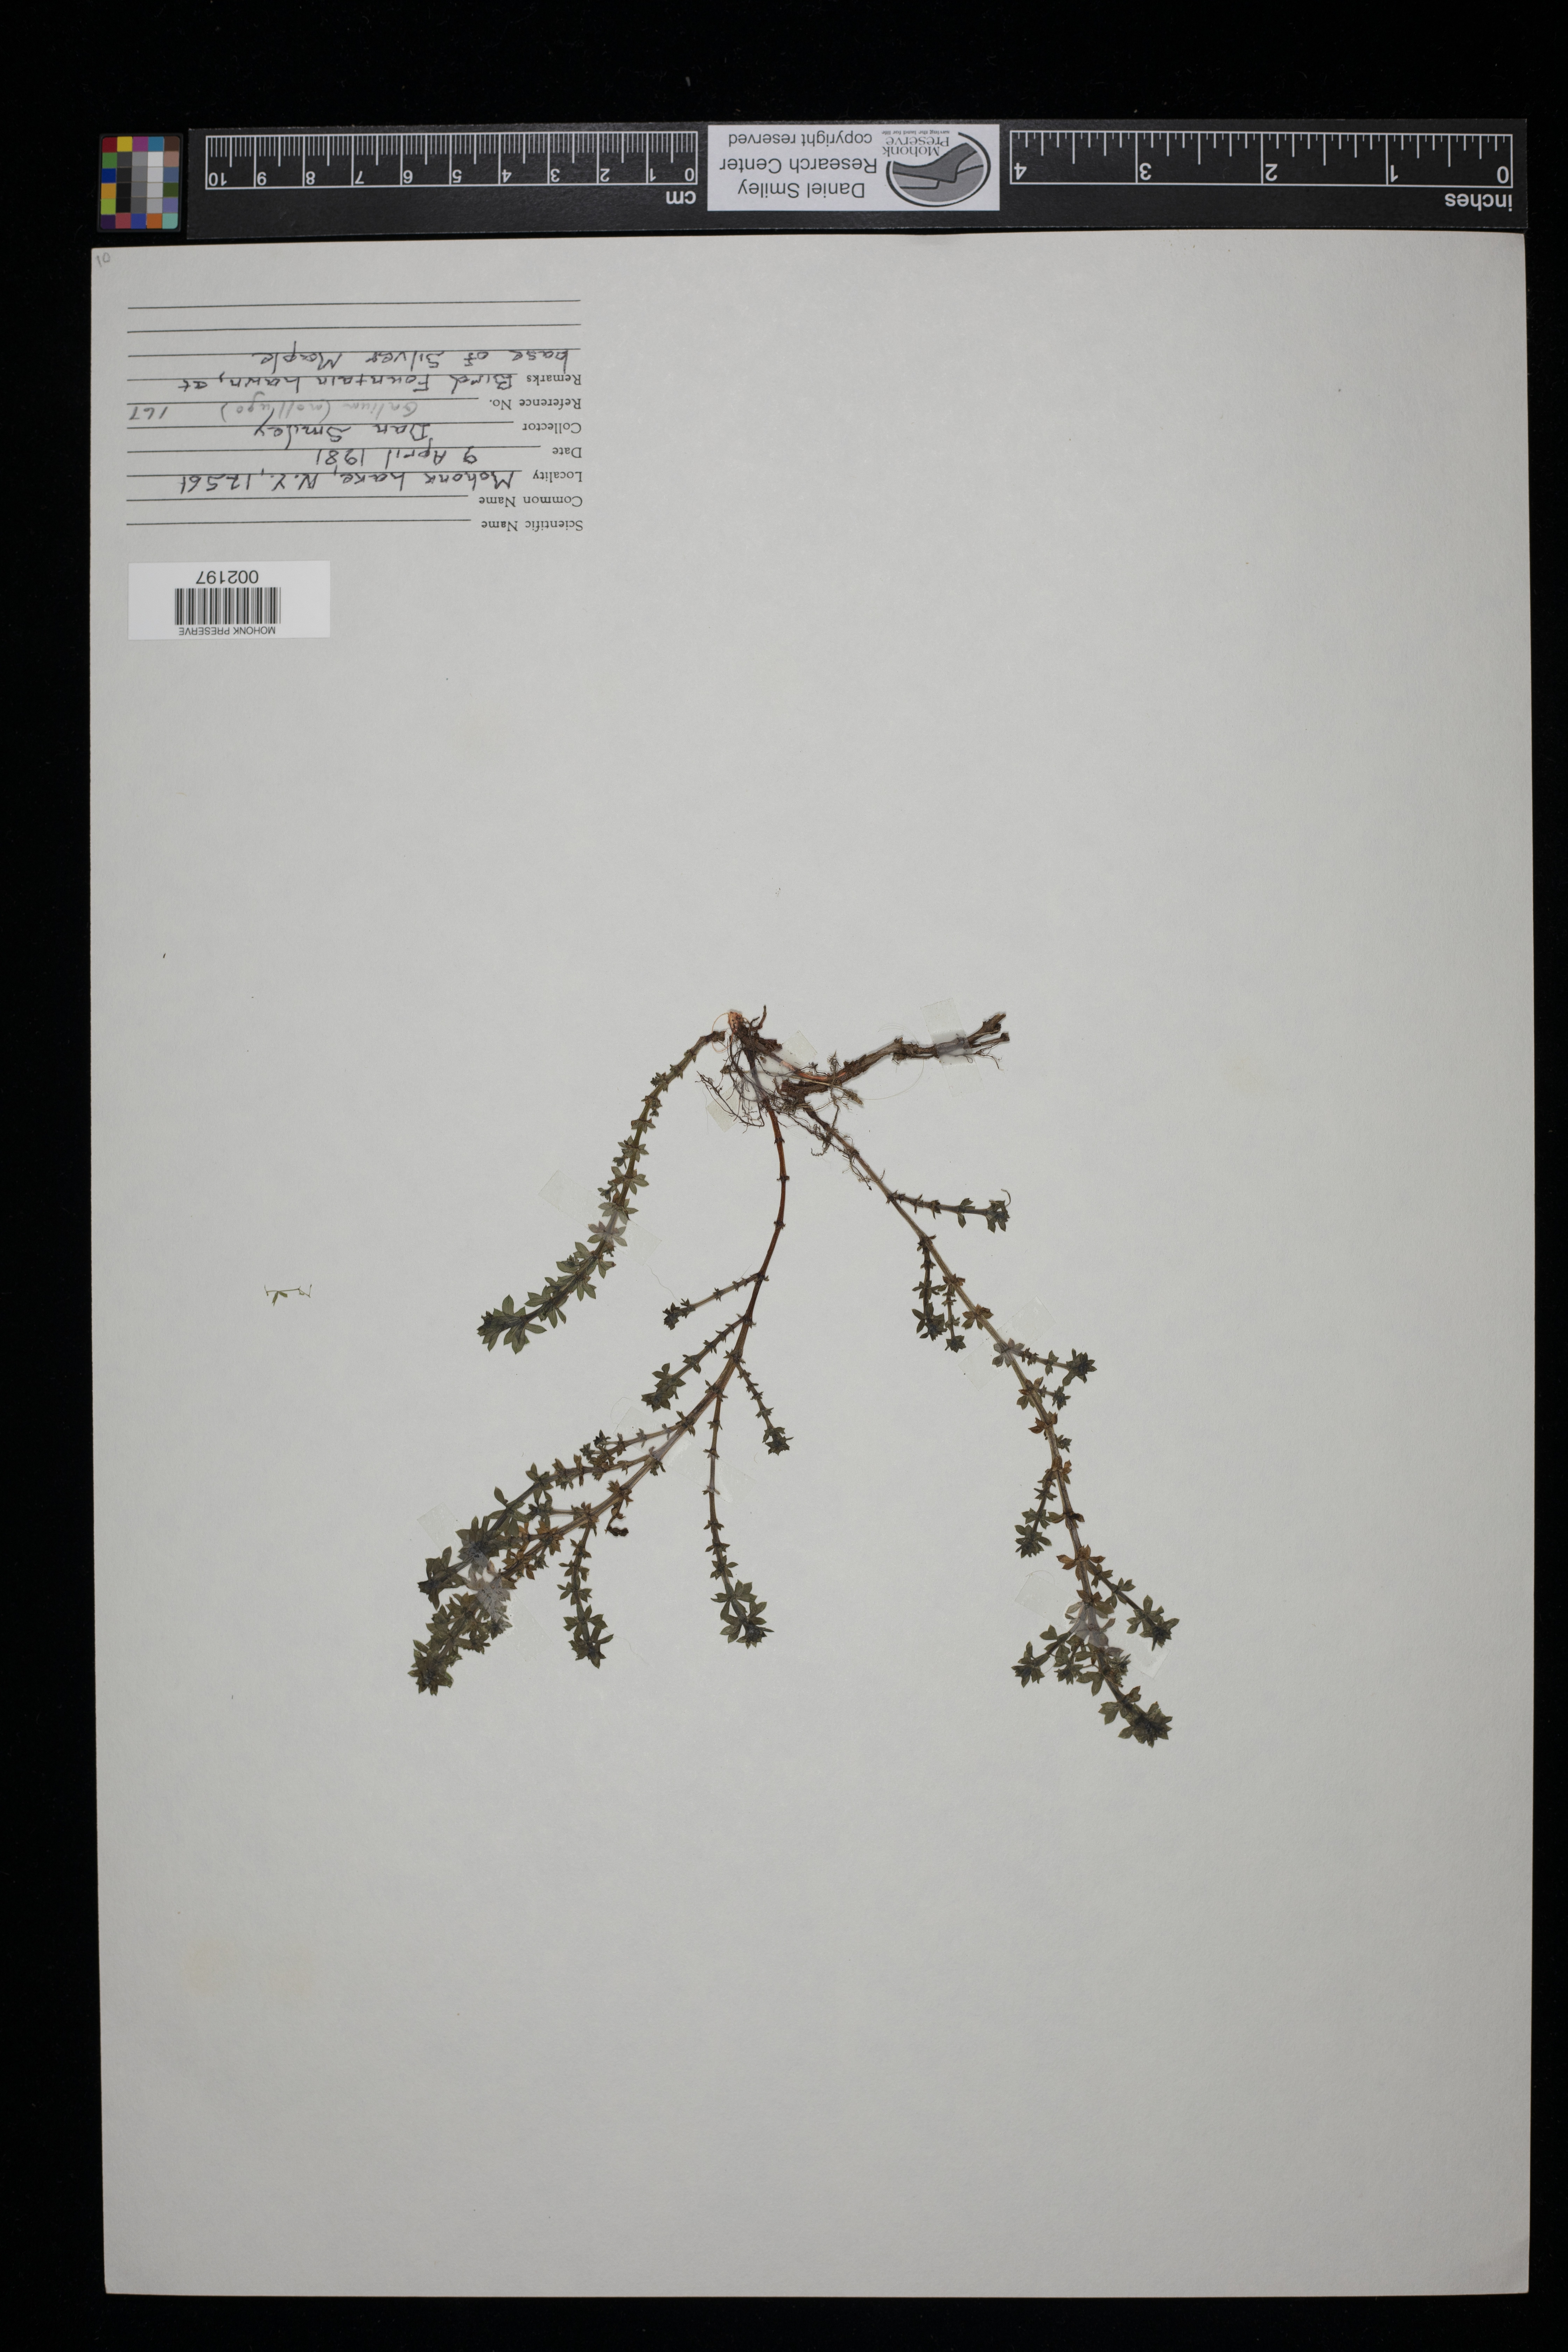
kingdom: Plantae
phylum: Tracheophyta
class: Magnoliopsida
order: Gentianales
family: Rubiaceae
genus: Galium
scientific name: Galium mollugo
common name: Hedge bedstraw
